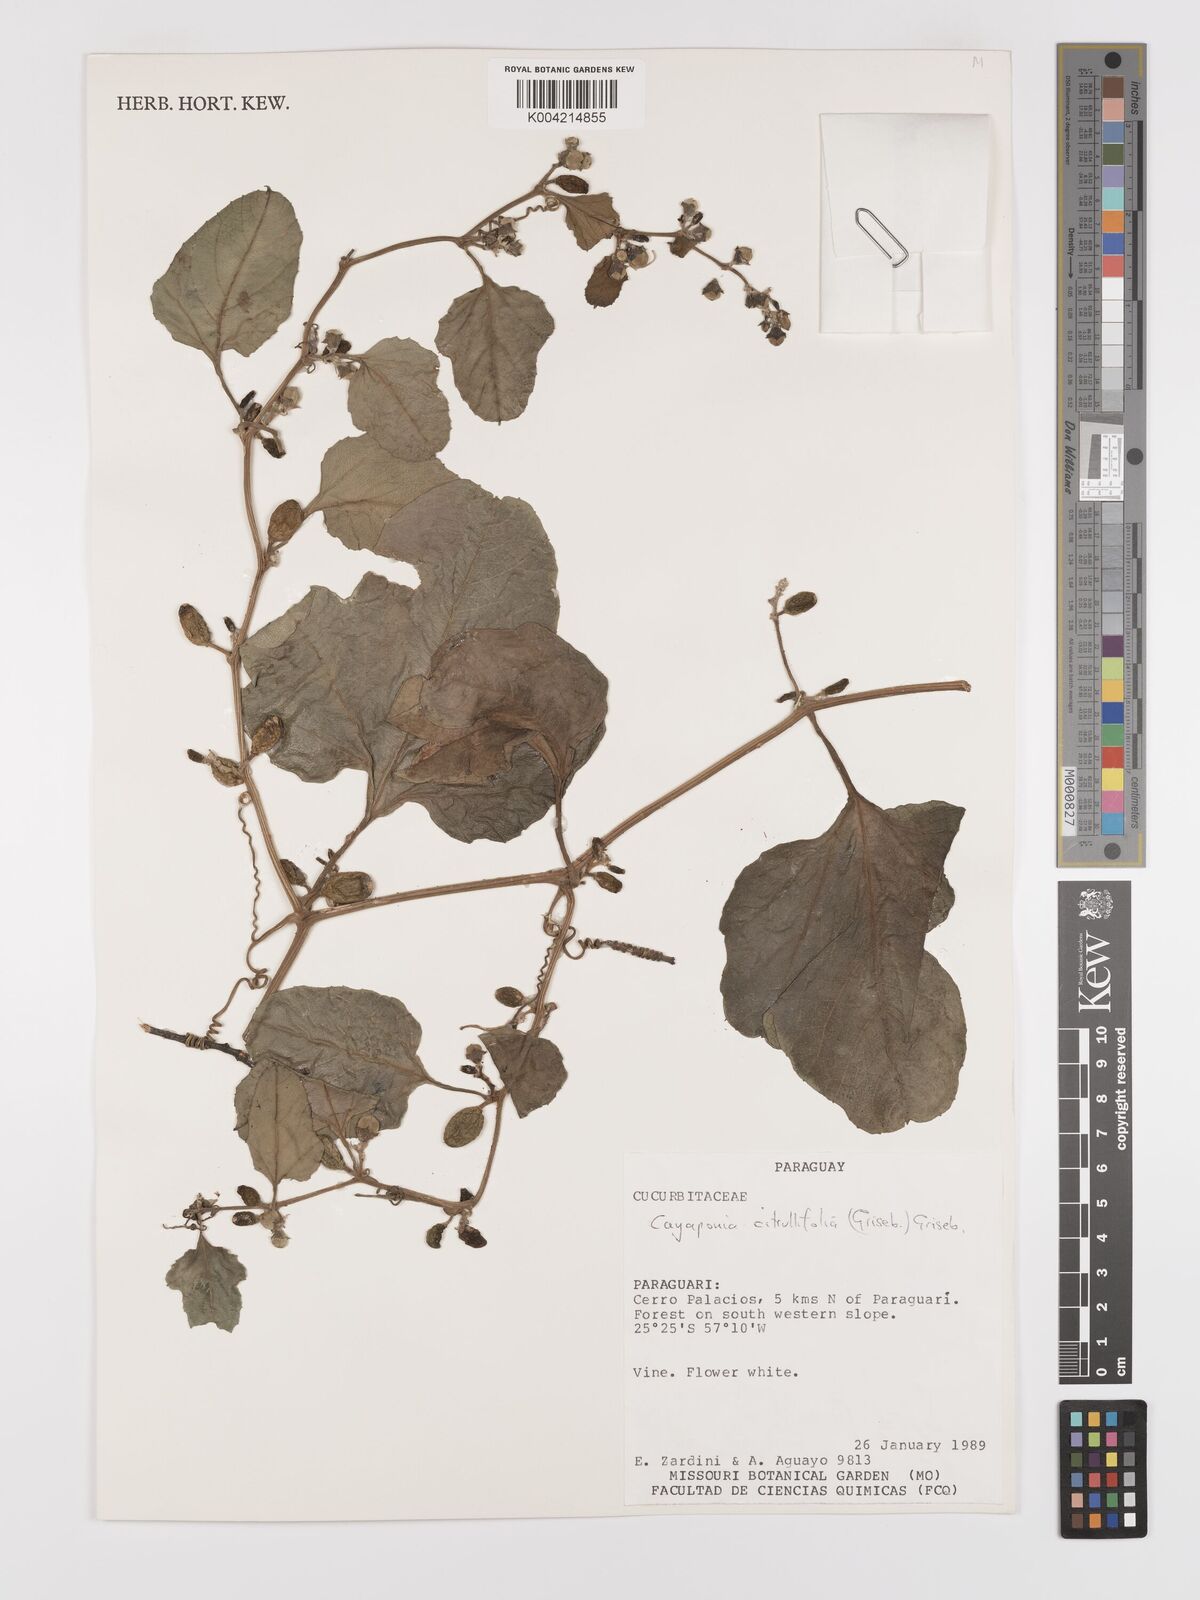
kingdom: Plantae
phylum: Tracheophyta
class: Magnoliopsida
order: Cucurbitales
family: Cucurbitaceae
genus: Cayaponia
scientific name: Cayaponia citrullifolia
